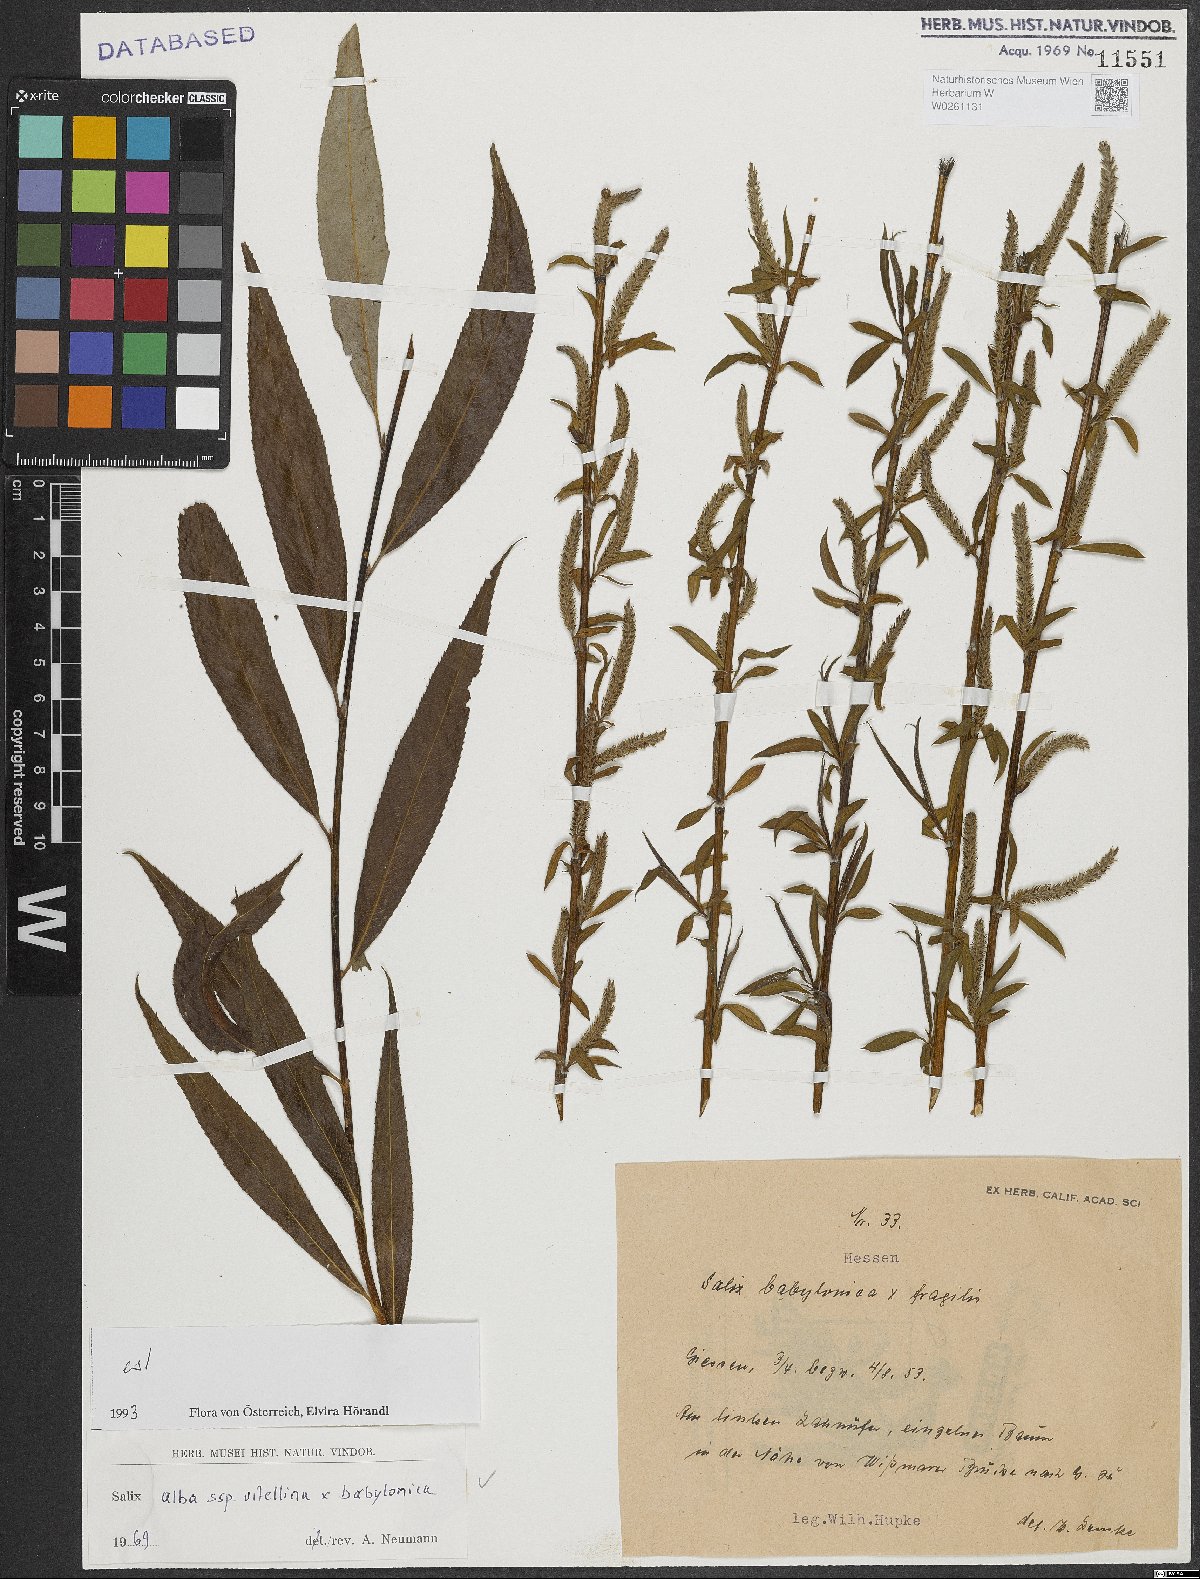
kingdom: Plantae
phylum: Tracheophyta
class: Magnoliopsida
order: Malpighiales
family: Salicaceae
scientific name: Salicaceae
